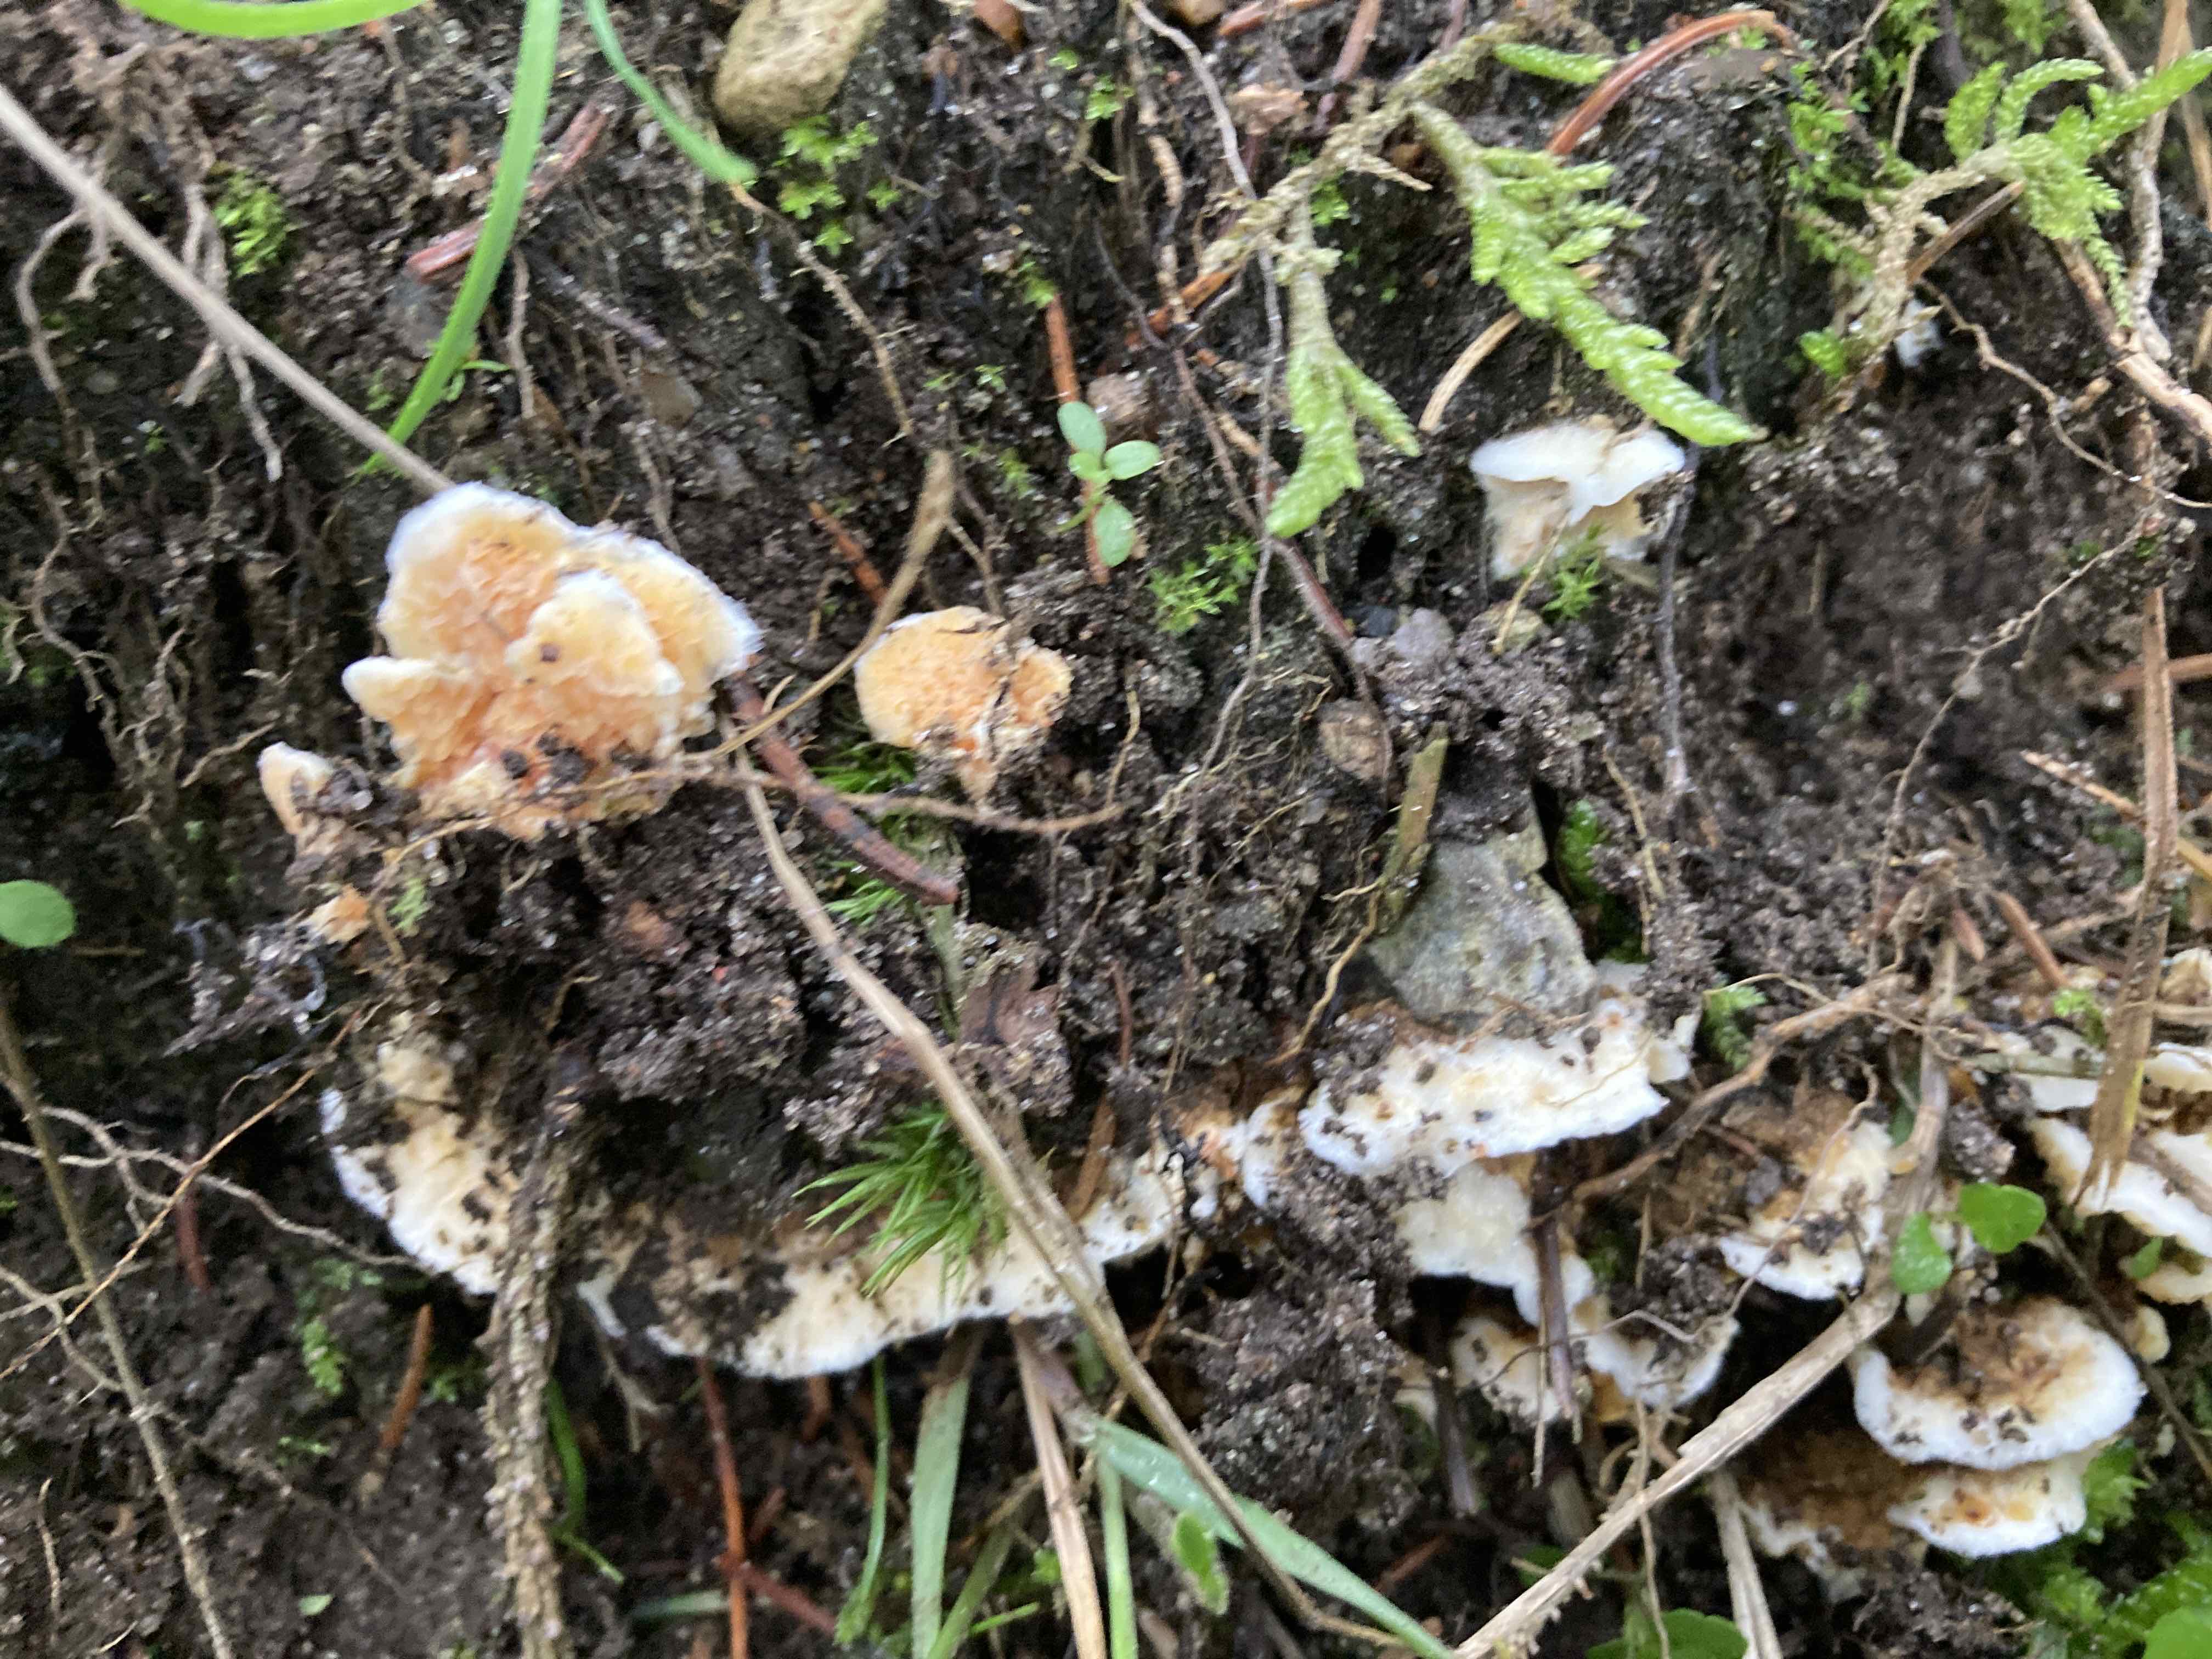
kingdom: Fungi
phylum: Basidiomycota
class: Agaricomycetes
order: Boletales
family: Hygrophoropsidaceae
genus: Leucogyrophana
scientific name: Leucogyrophana
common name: hussvamp
